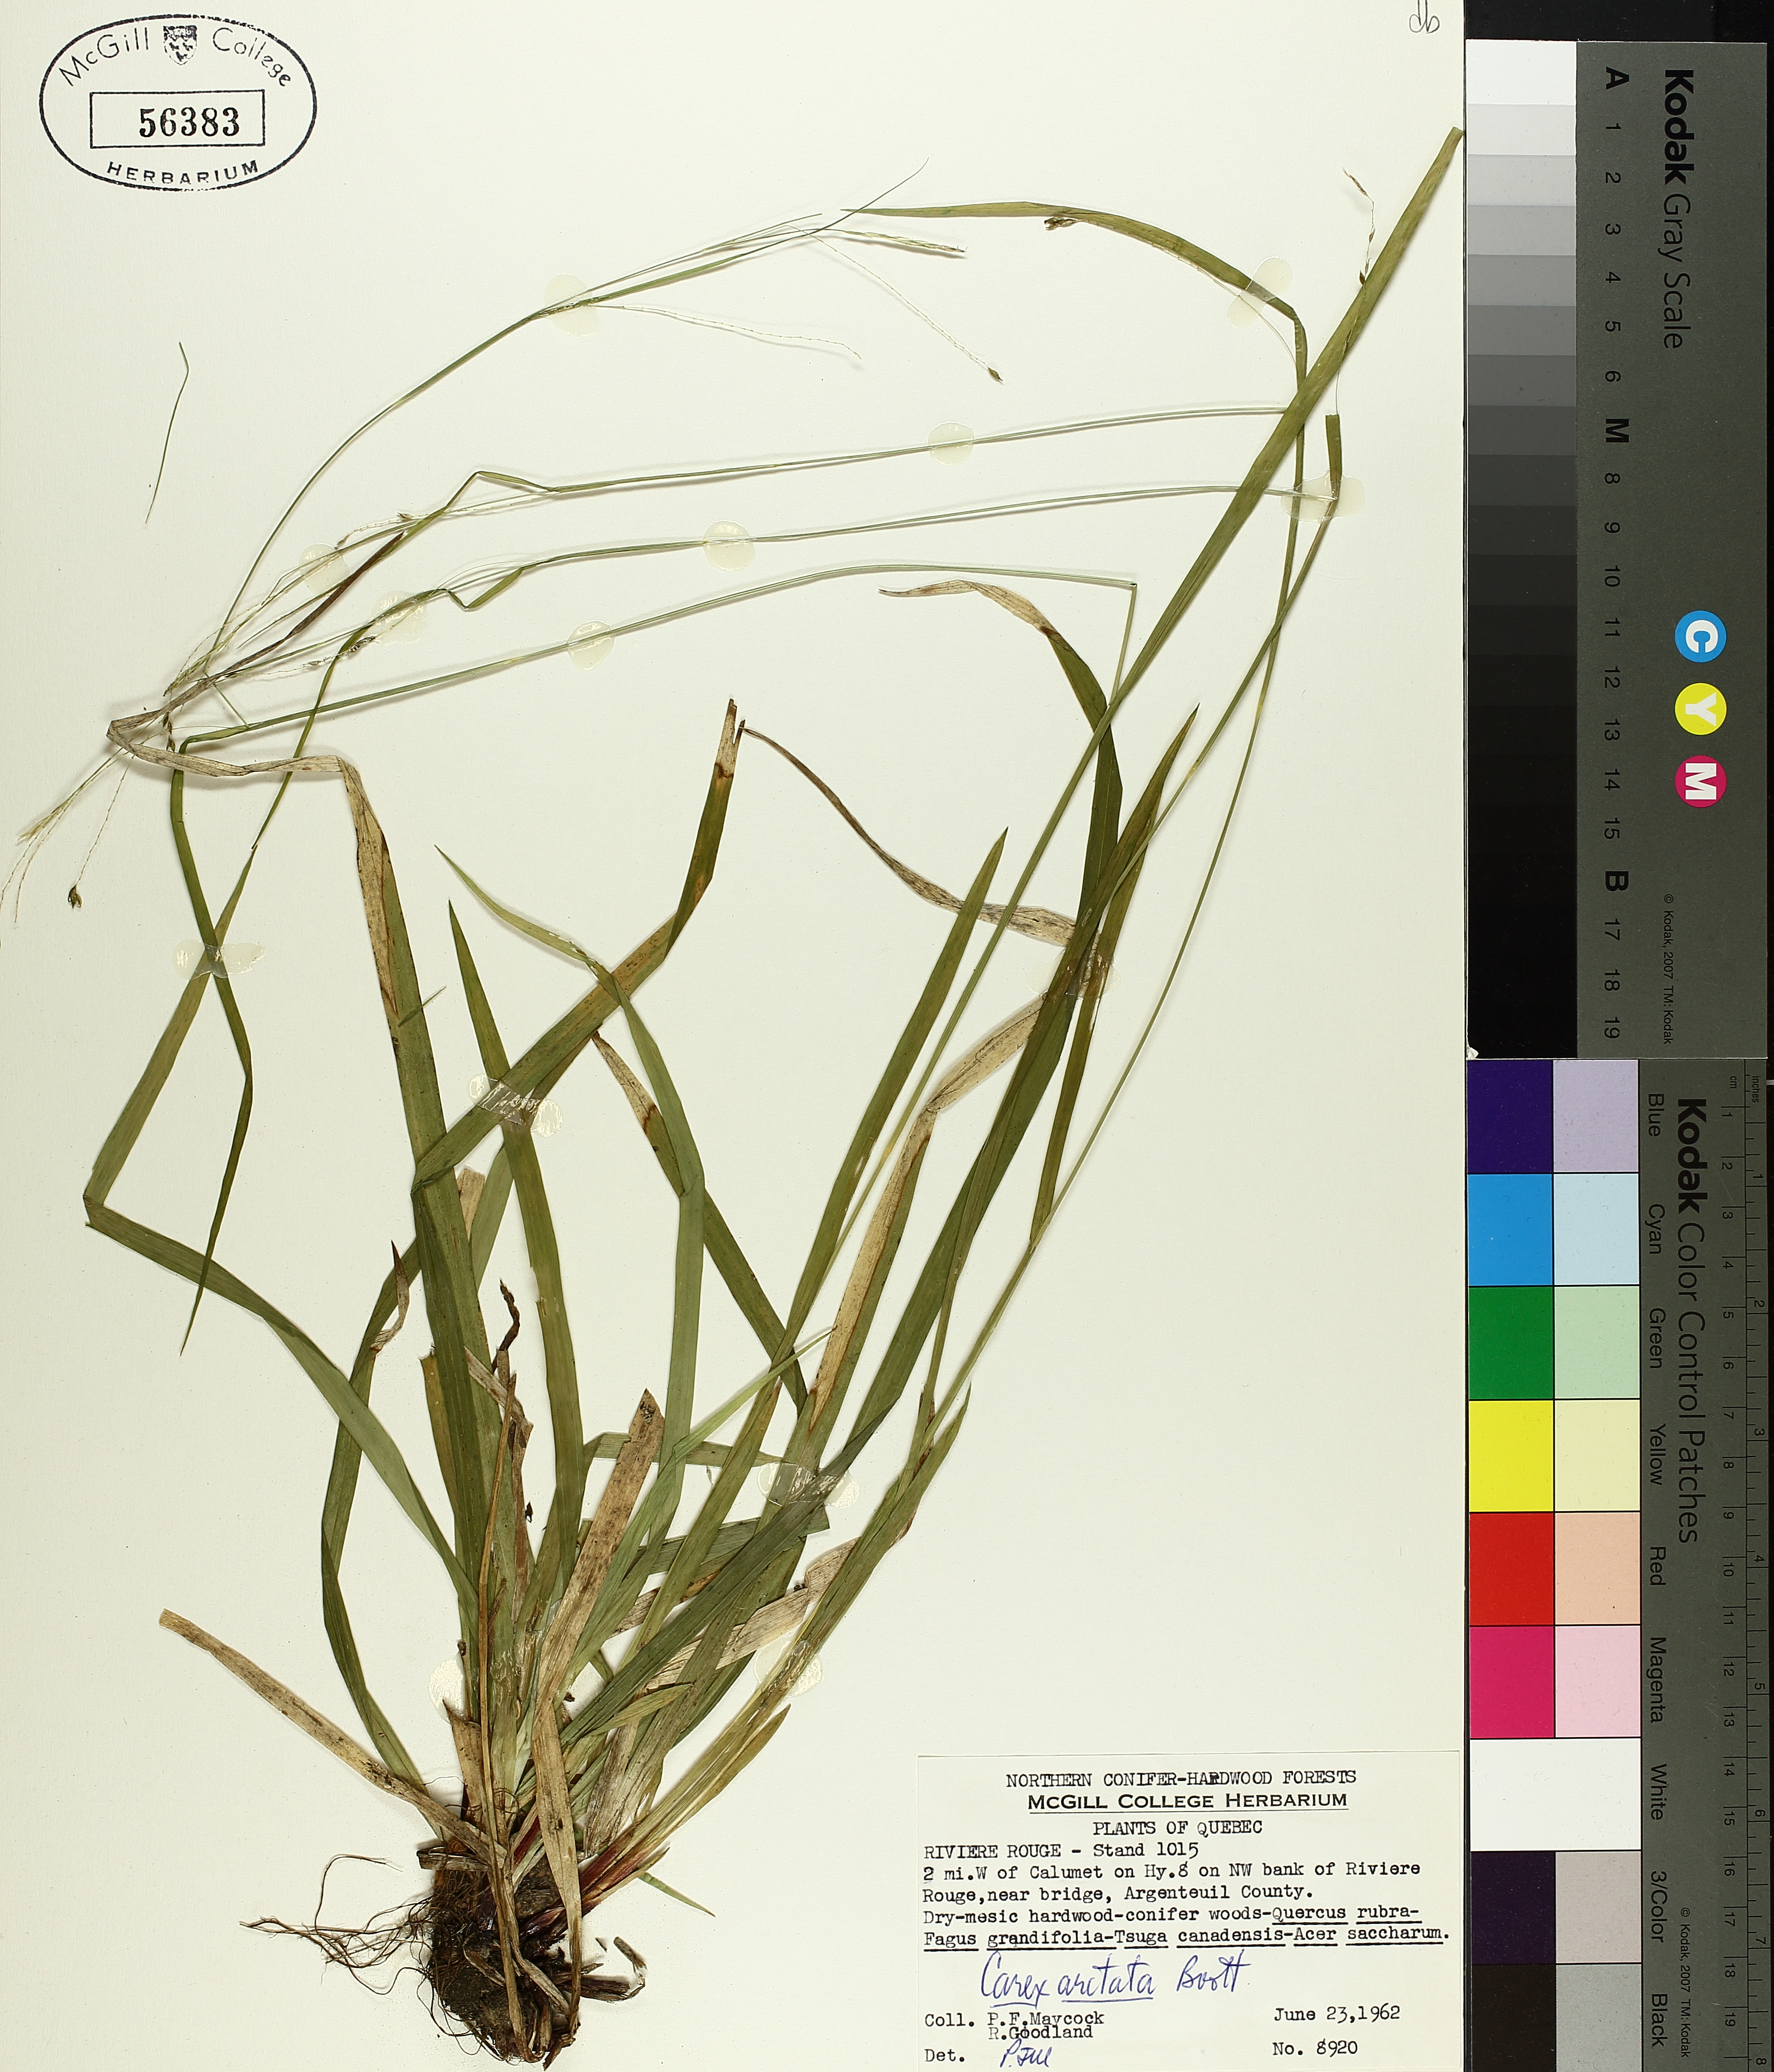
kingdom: Plantae
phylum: Tracheophyta
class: Liliopsida
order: Poales
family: Cyperaceae
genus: Carex
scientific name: Carex arctata
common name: Black sedge
